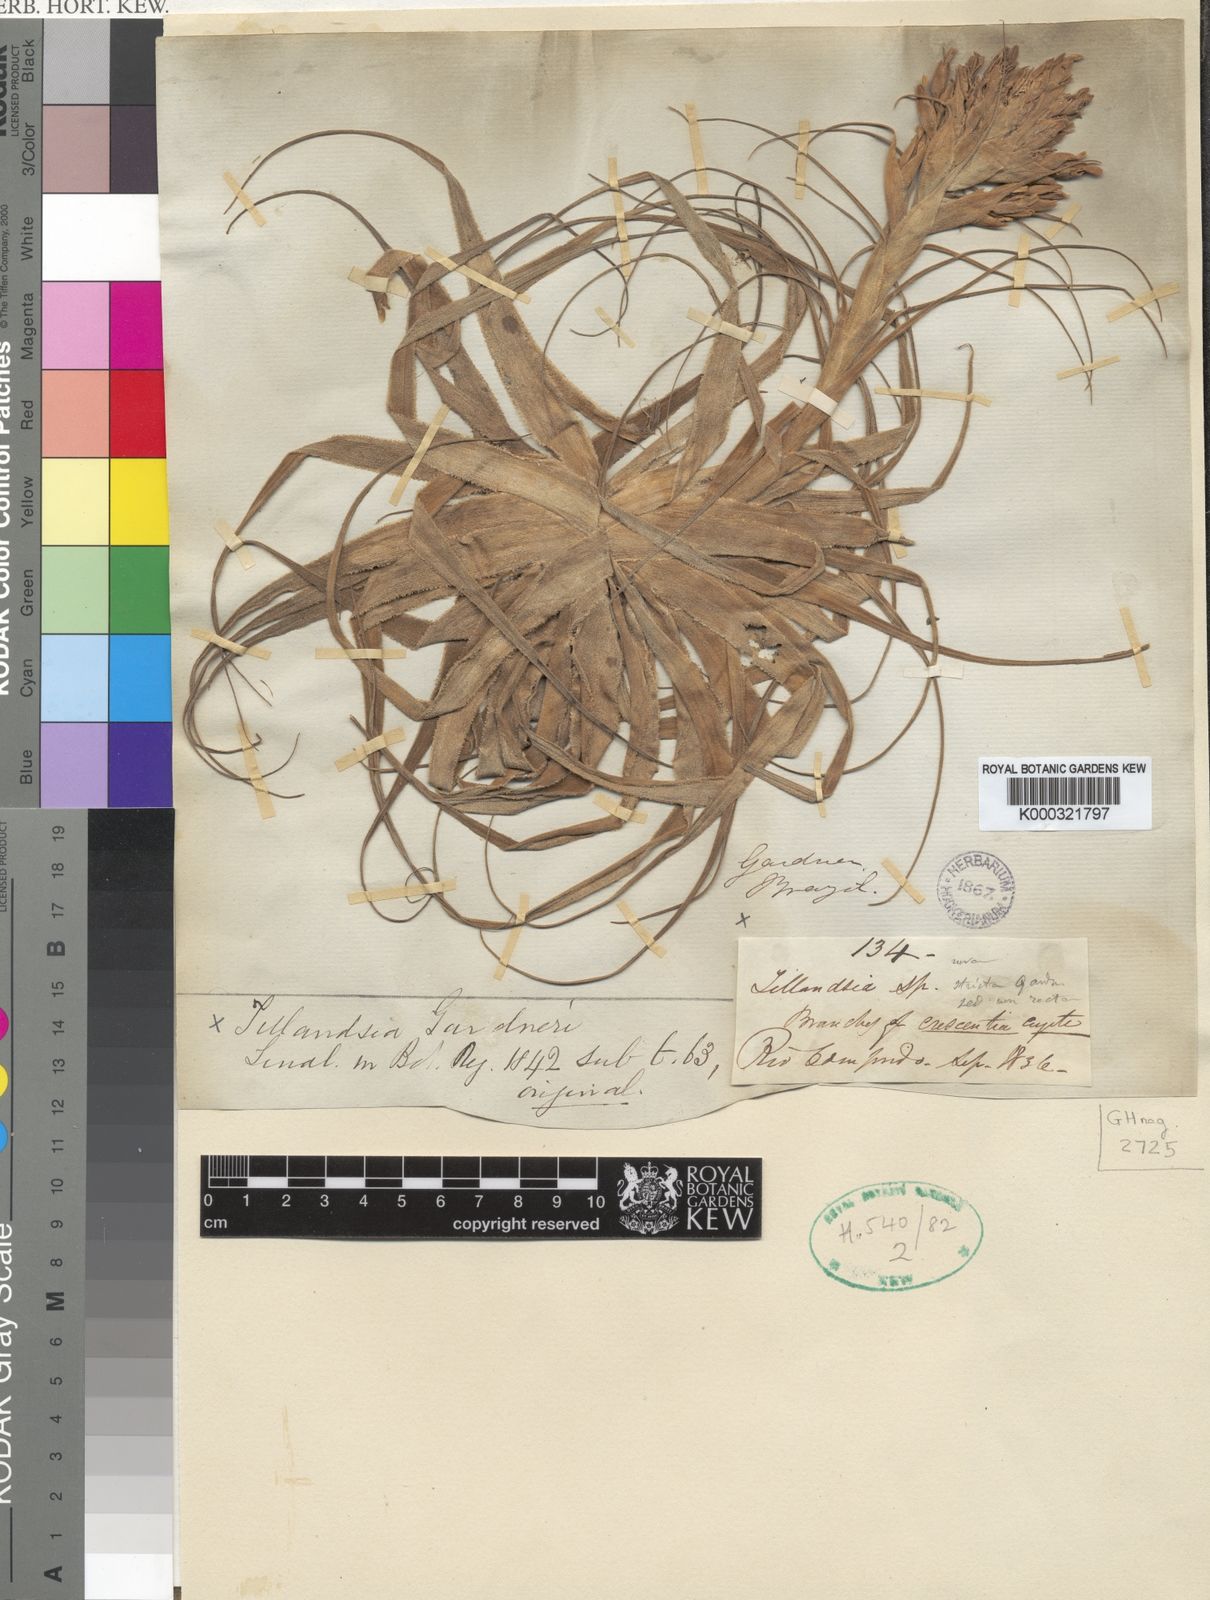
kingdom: Plantae
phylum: Tracheophyta
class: Liliopsida
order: Poales
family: Bromeliaceae
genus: Tillandsia
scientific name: Tillandsia gardneri
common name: Airplant
